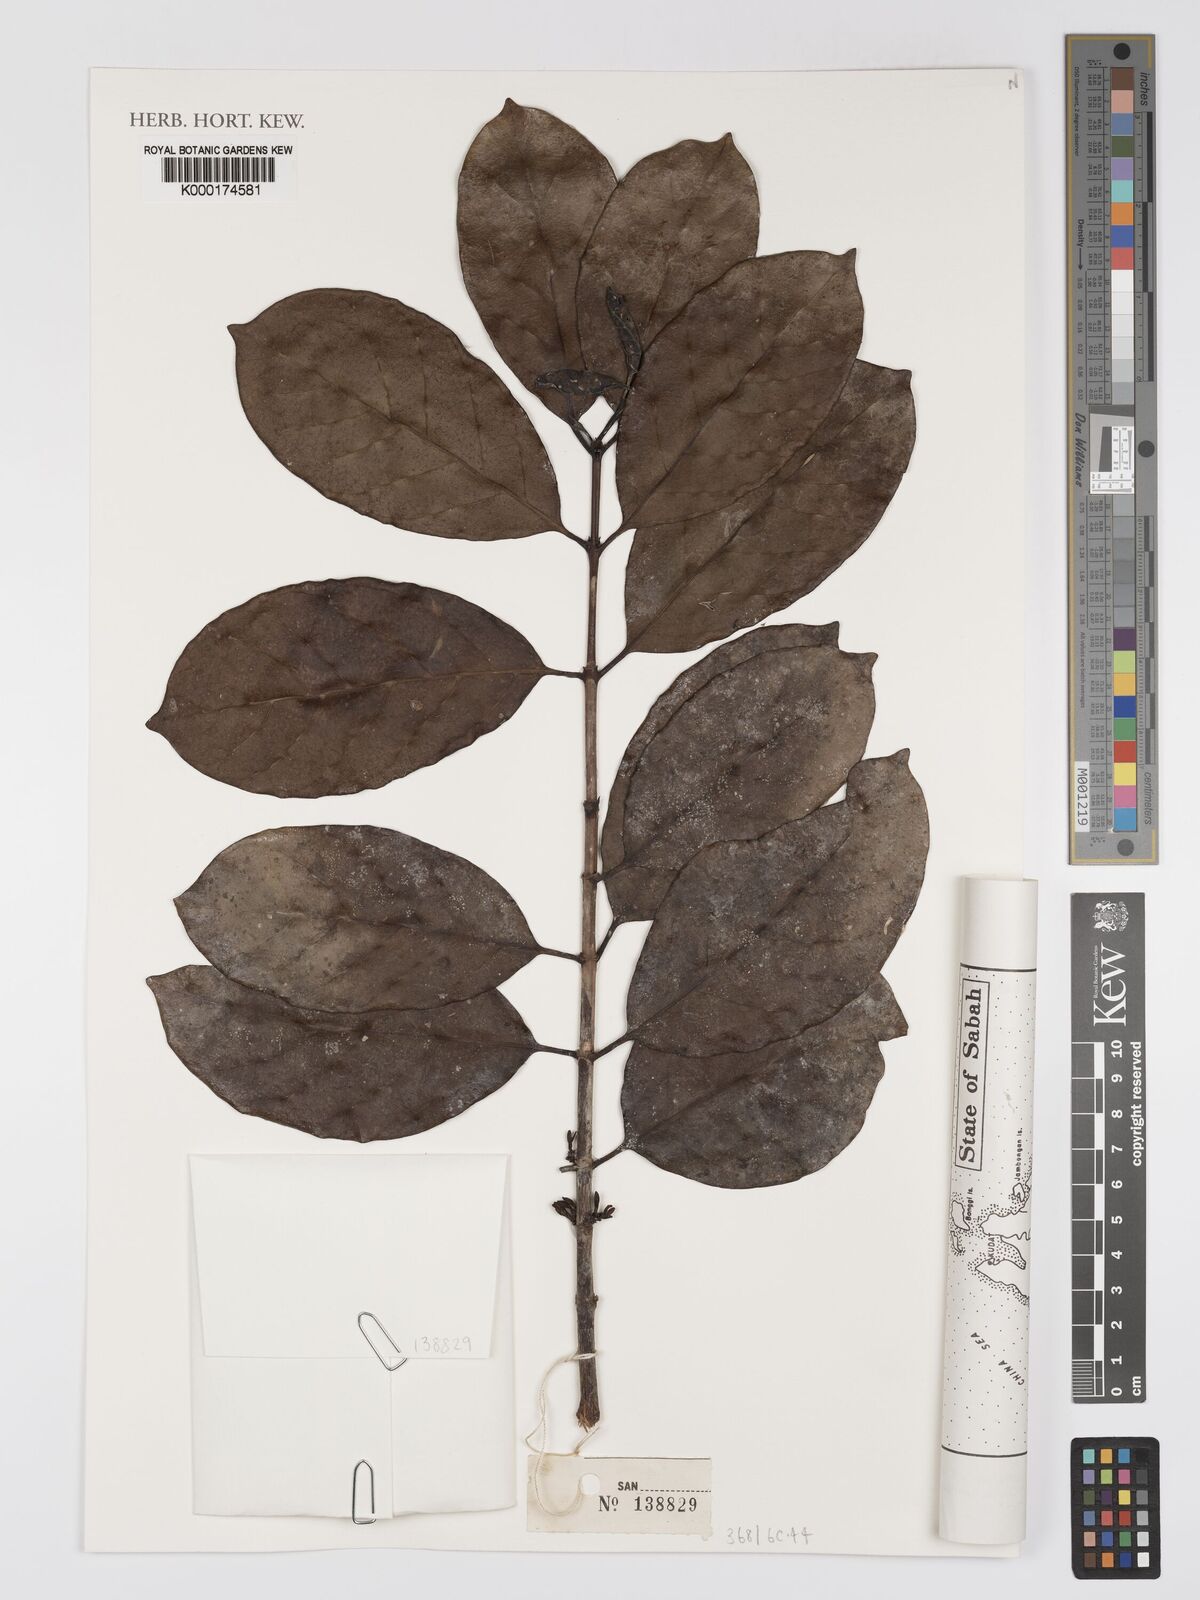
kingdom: Plantae
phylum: Tracheophyta
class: Magnoliopsida
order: Gentianales
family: Rubiaceae
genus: Diplospora
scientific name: Diplospora
